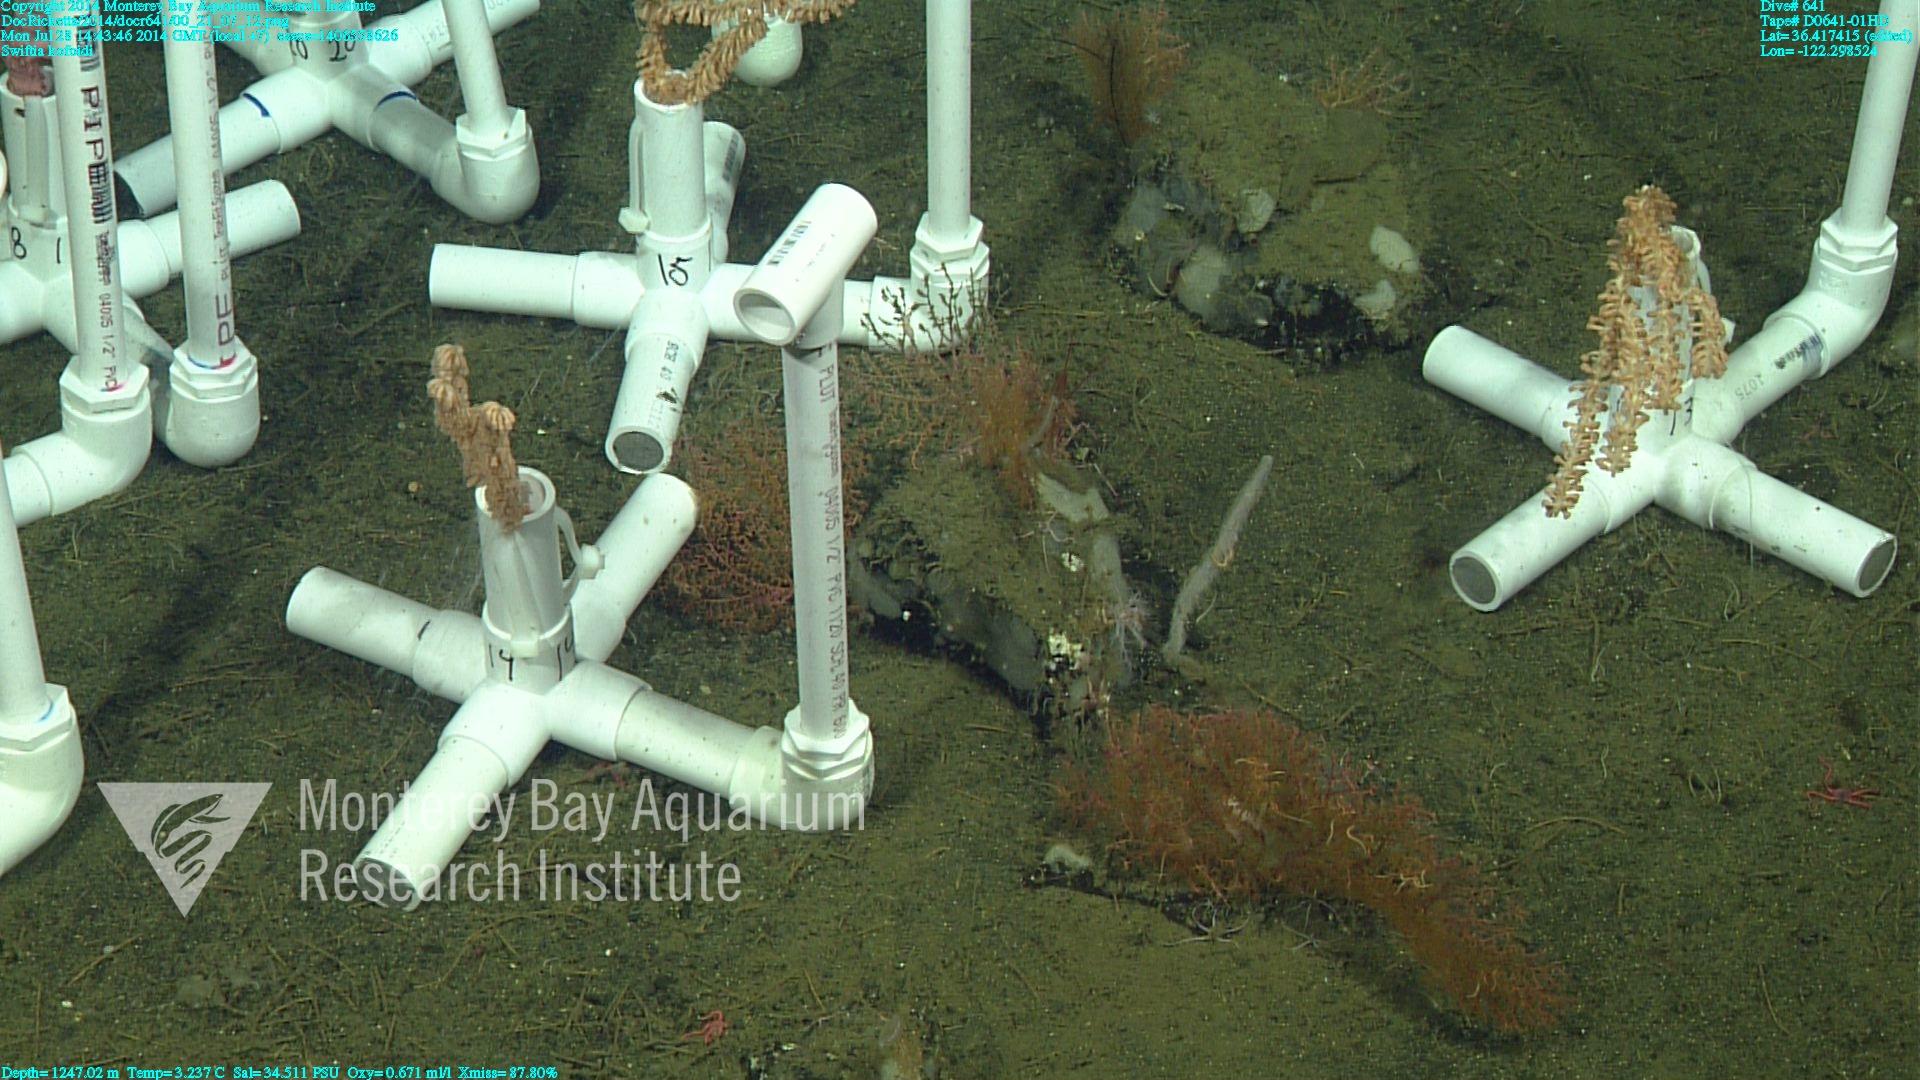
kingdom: Animalia
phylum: Cnidaria
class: Anthozoa
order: Malacalcyonacea
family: Gorgoniidae
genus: Callistephanus
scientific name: Callistephanus kofoidi
